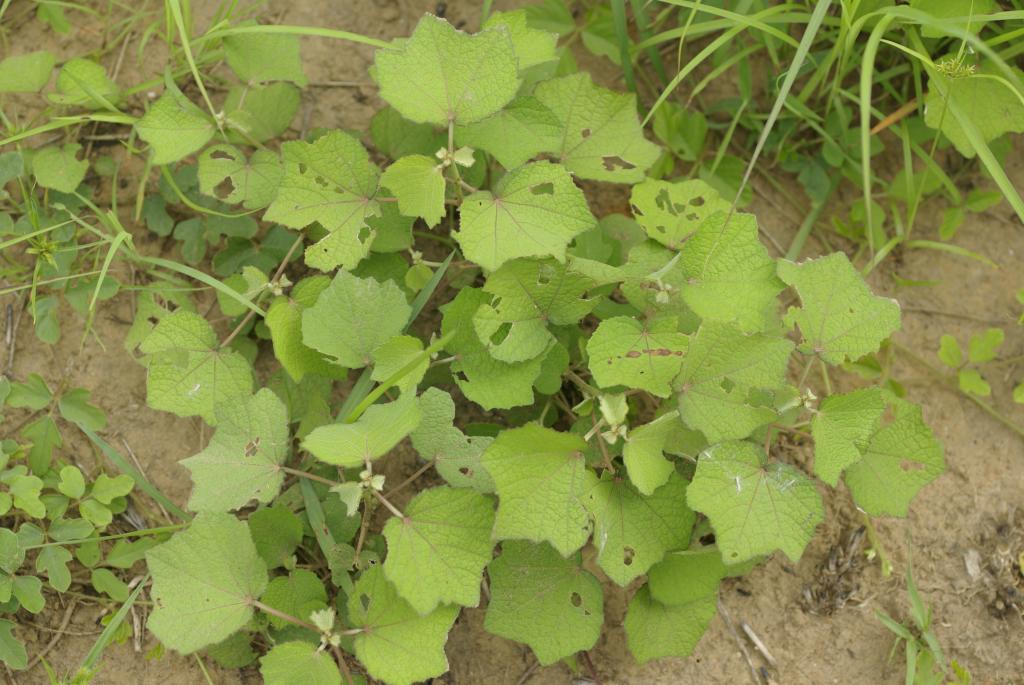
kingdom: Plantae
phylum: Tracheophyta
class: Magnoliopsida
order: Malvales
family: Malvaceae
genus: Urena
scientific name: Urena lobata
